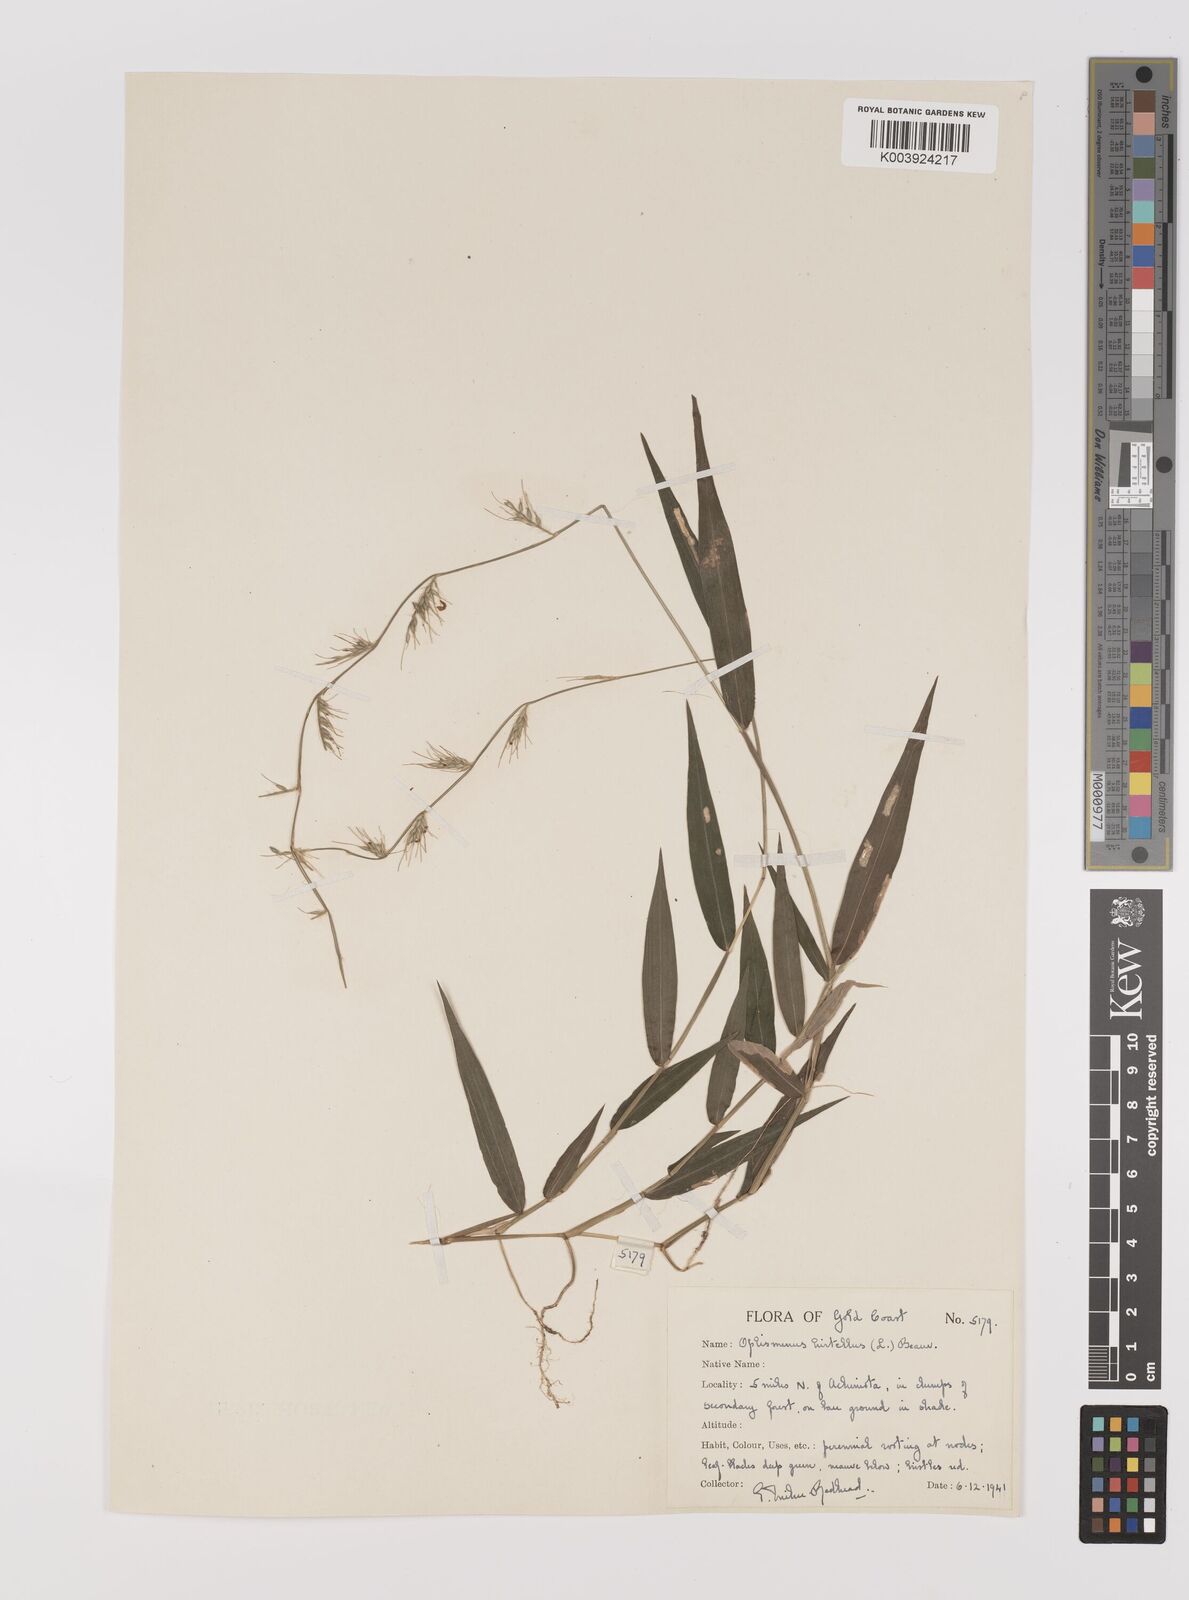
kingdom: Plantae
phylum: Tracheophyta
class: Liliopsida
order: Poales
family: Poaceae
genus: Oplismenus
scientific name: Oplismenus hirtellus
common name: Basketgrass
